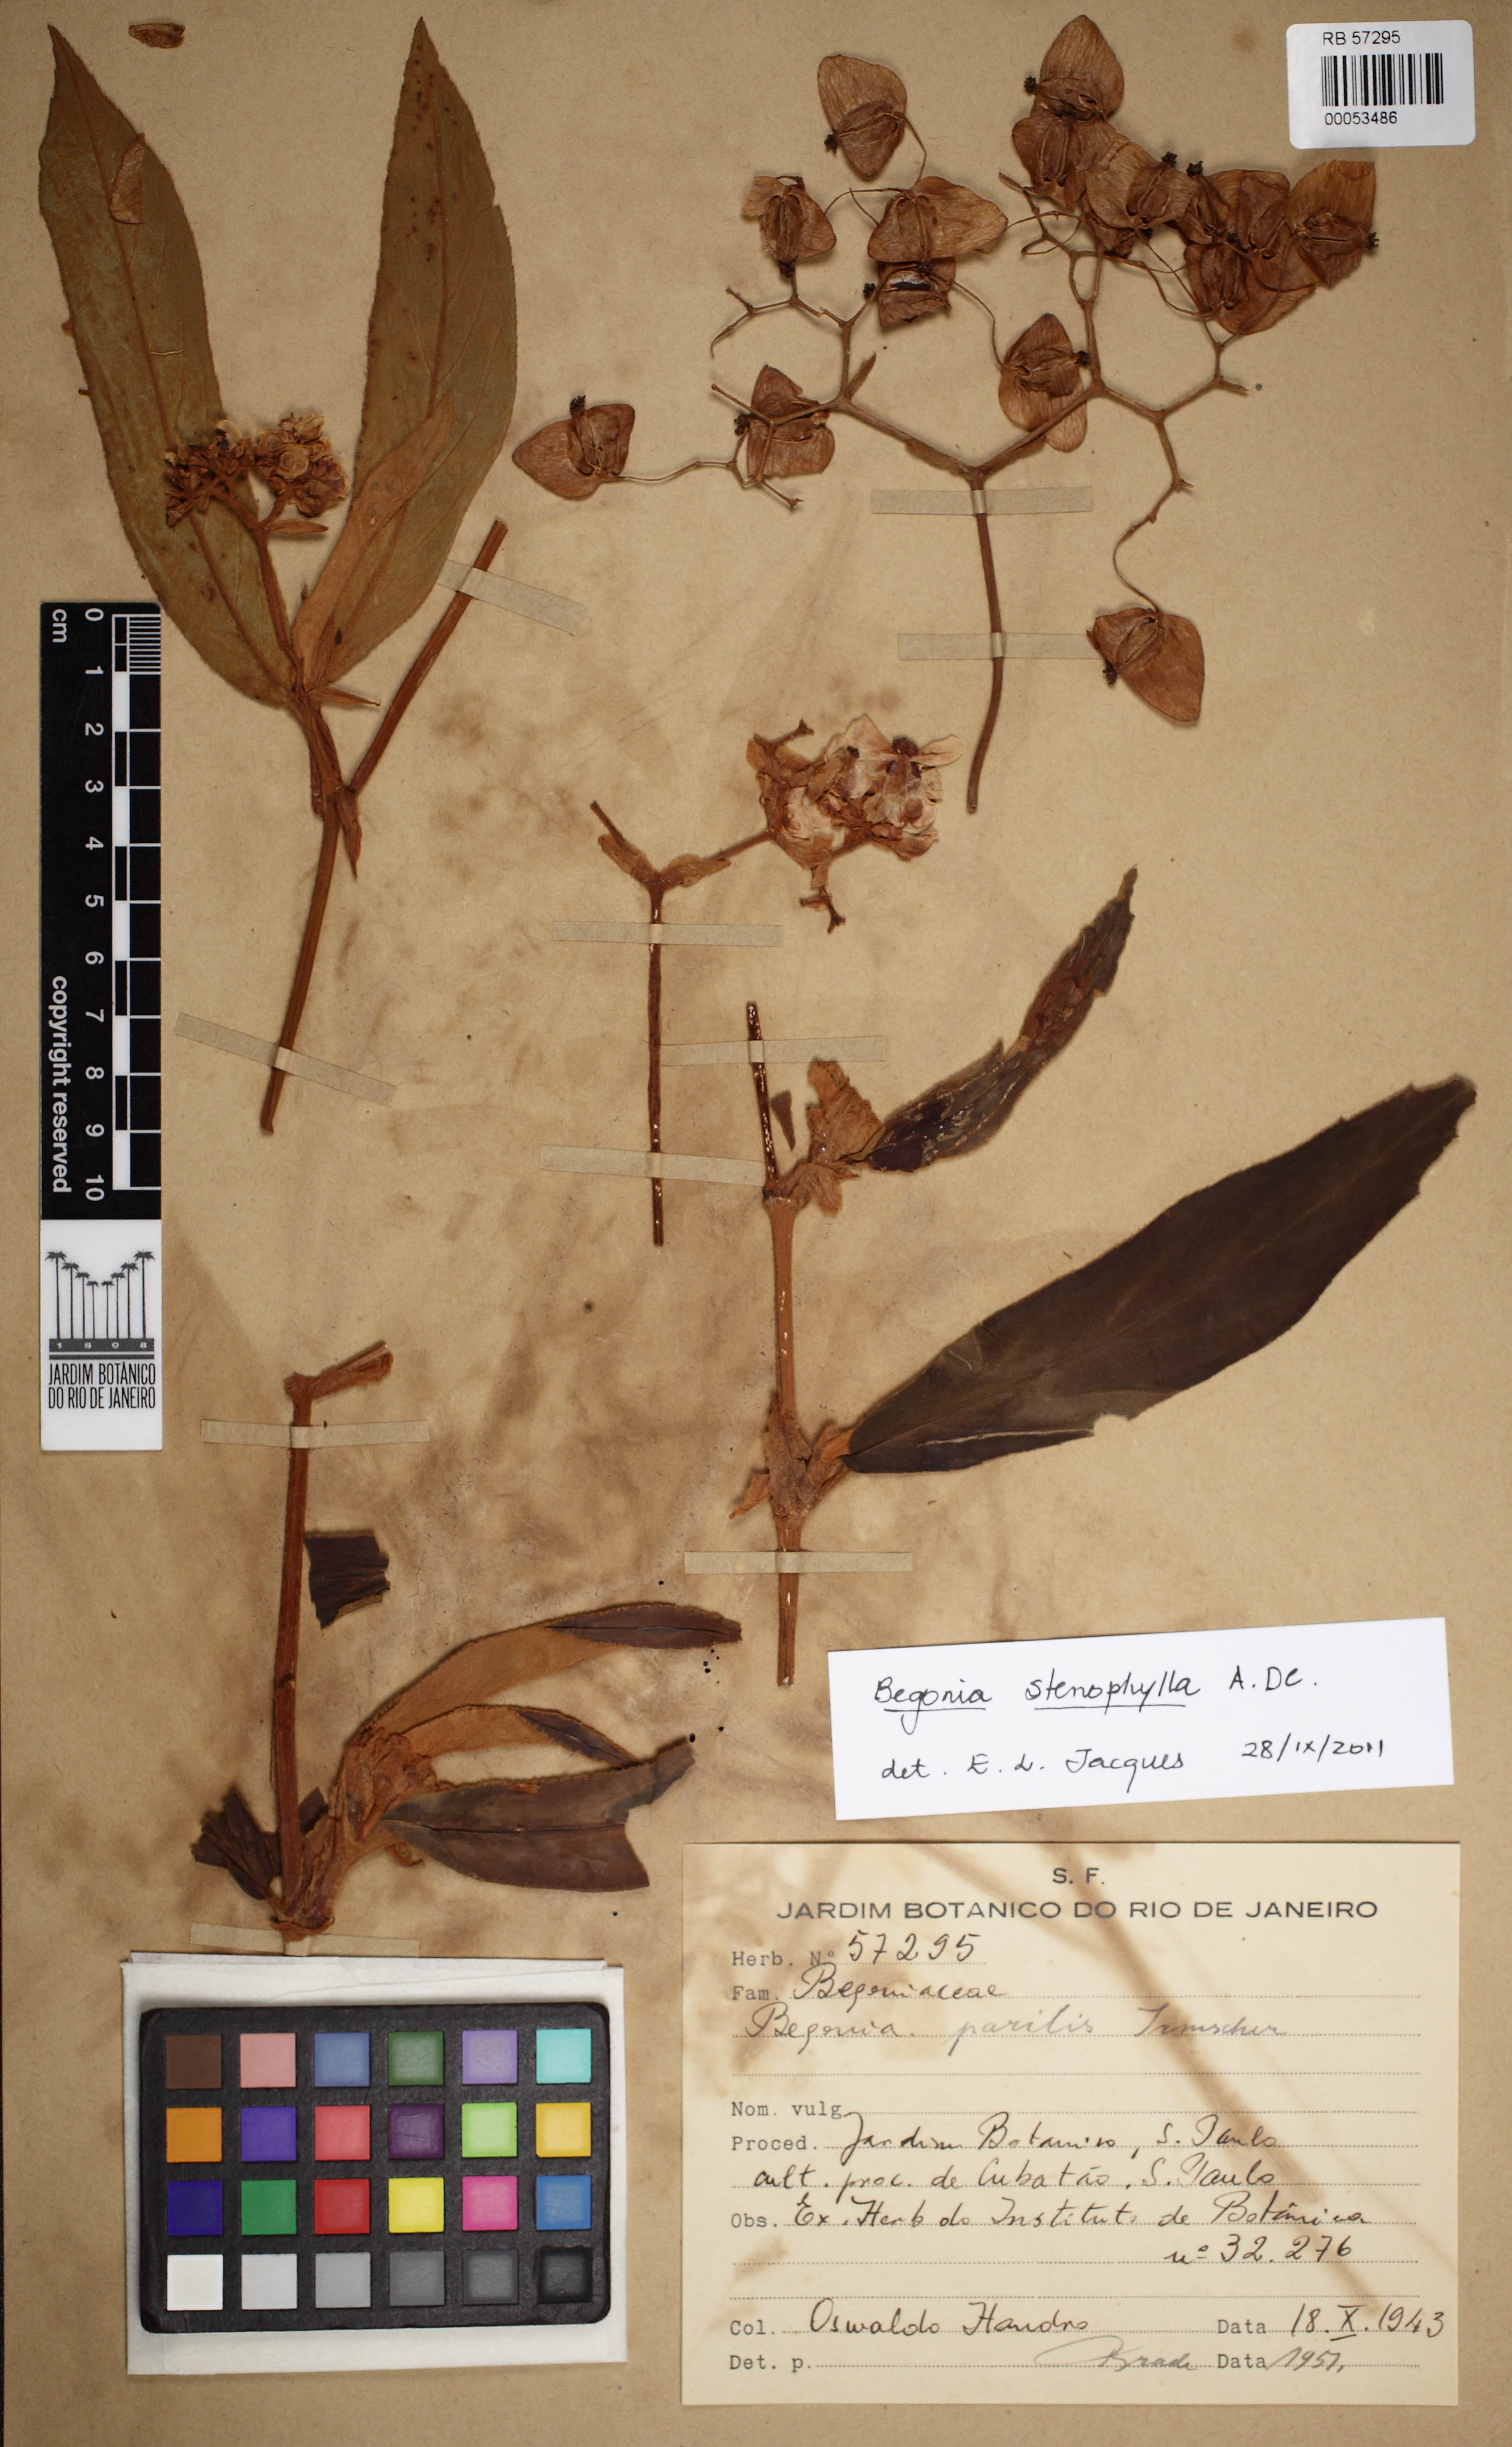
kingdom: Plantae
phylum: Tracheophyta
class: Magnoliopsida
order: Cucurbitales
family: Begoniaceae
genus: Begonia
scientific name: Begonia stenophylla
